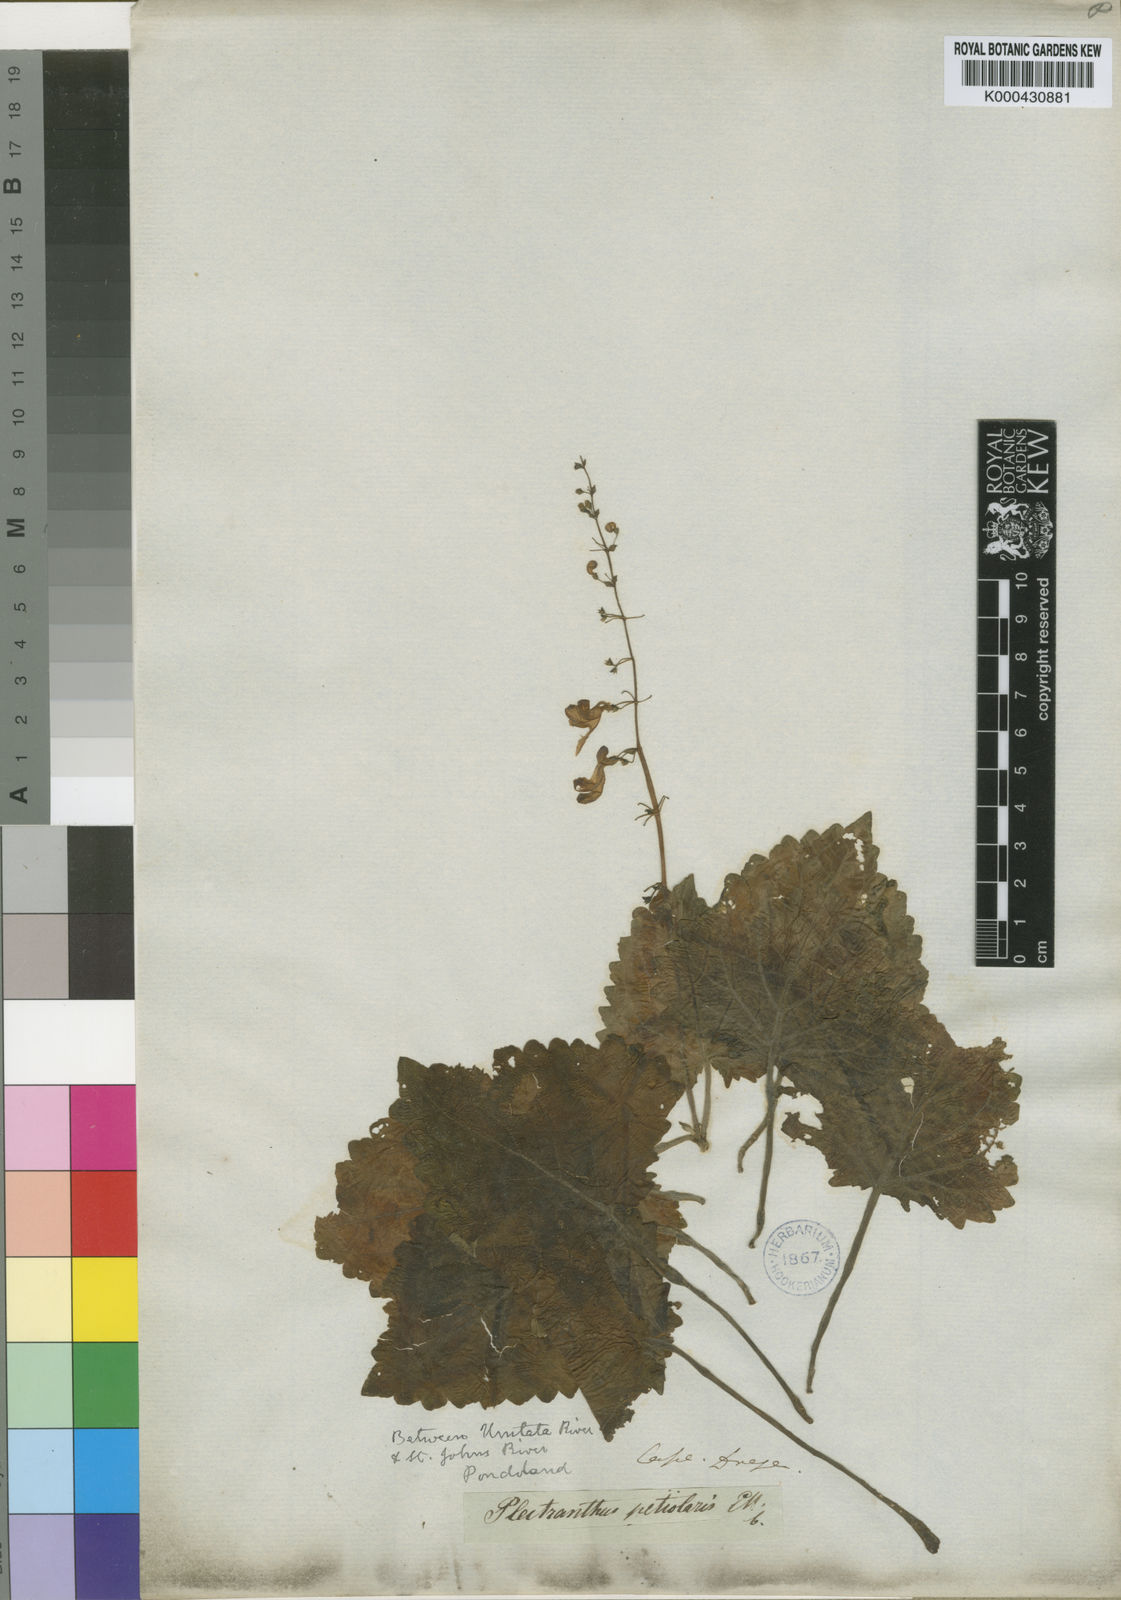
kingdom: Plantae
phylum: Tracheophyta
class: Magnoliopsida
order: Lamiales
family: Lamiaceae
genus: Equilabium
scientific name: Equilabium petiolare
